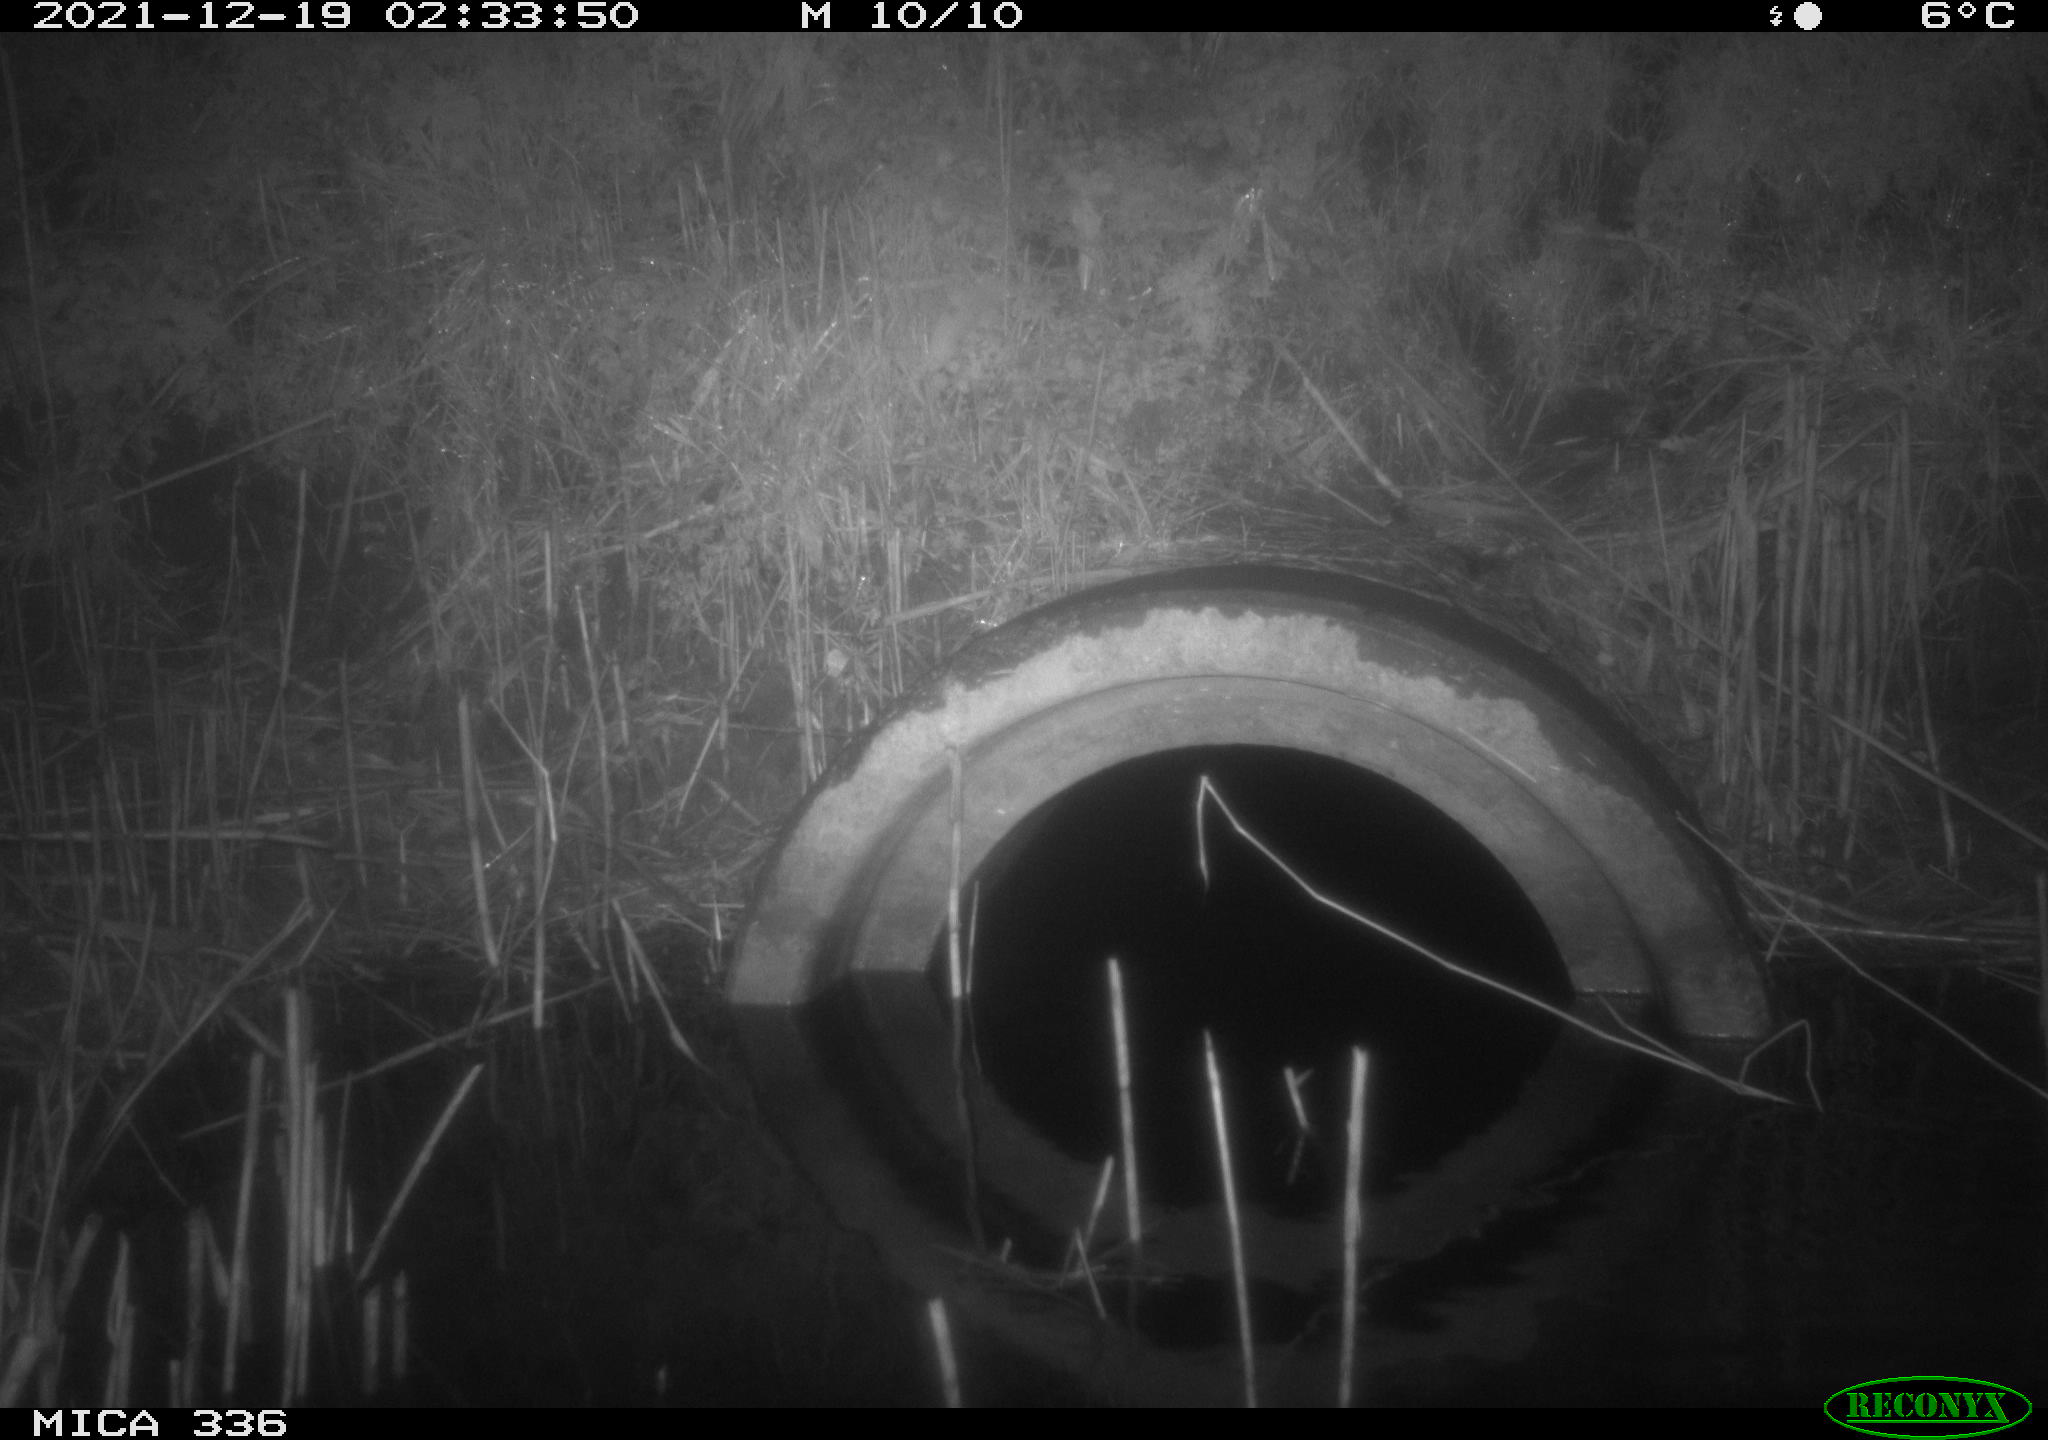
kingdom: Animalia
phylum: Chordata
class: Mammalia
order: Rodentia
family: Muridae
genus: Rattus
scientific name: Rattus norvegicus
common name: Brown rat
